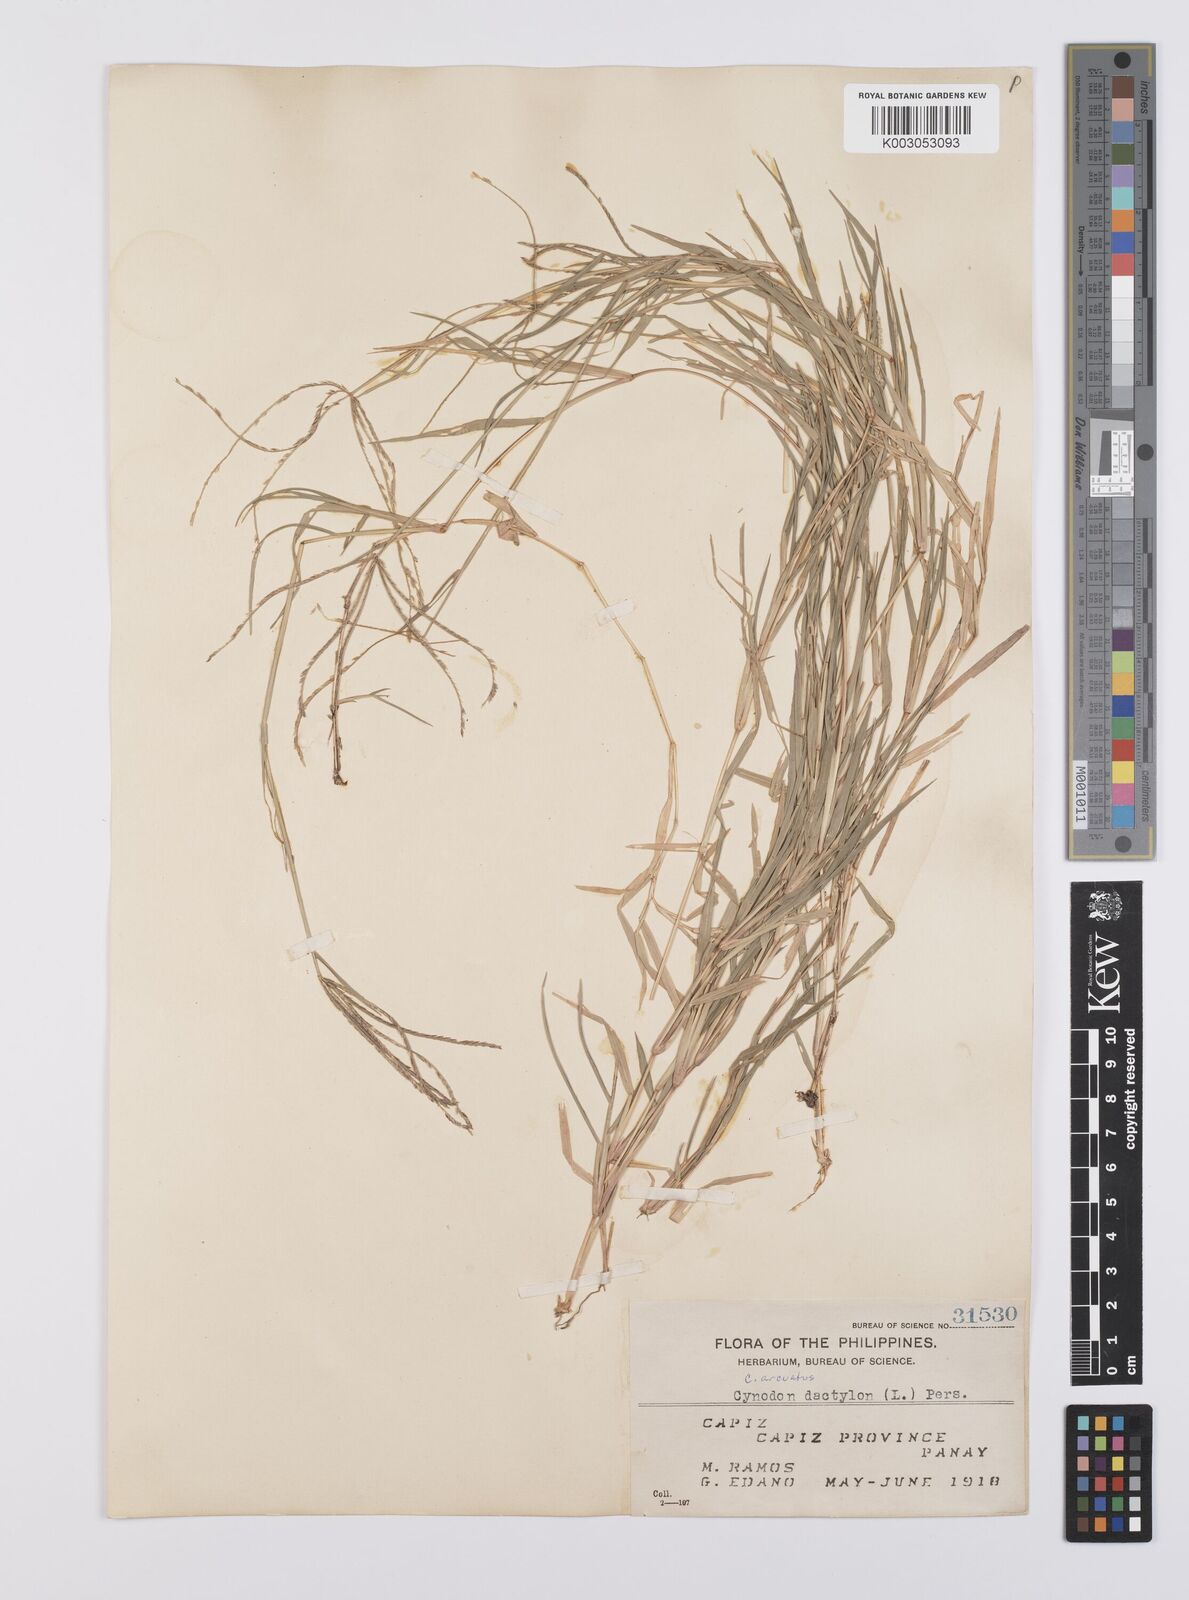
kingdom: Plantae
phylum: Tracheophyta
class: Liliopsida
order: Poales
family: Poaceae
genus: Cynodon
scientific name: Cynodon radiatus
